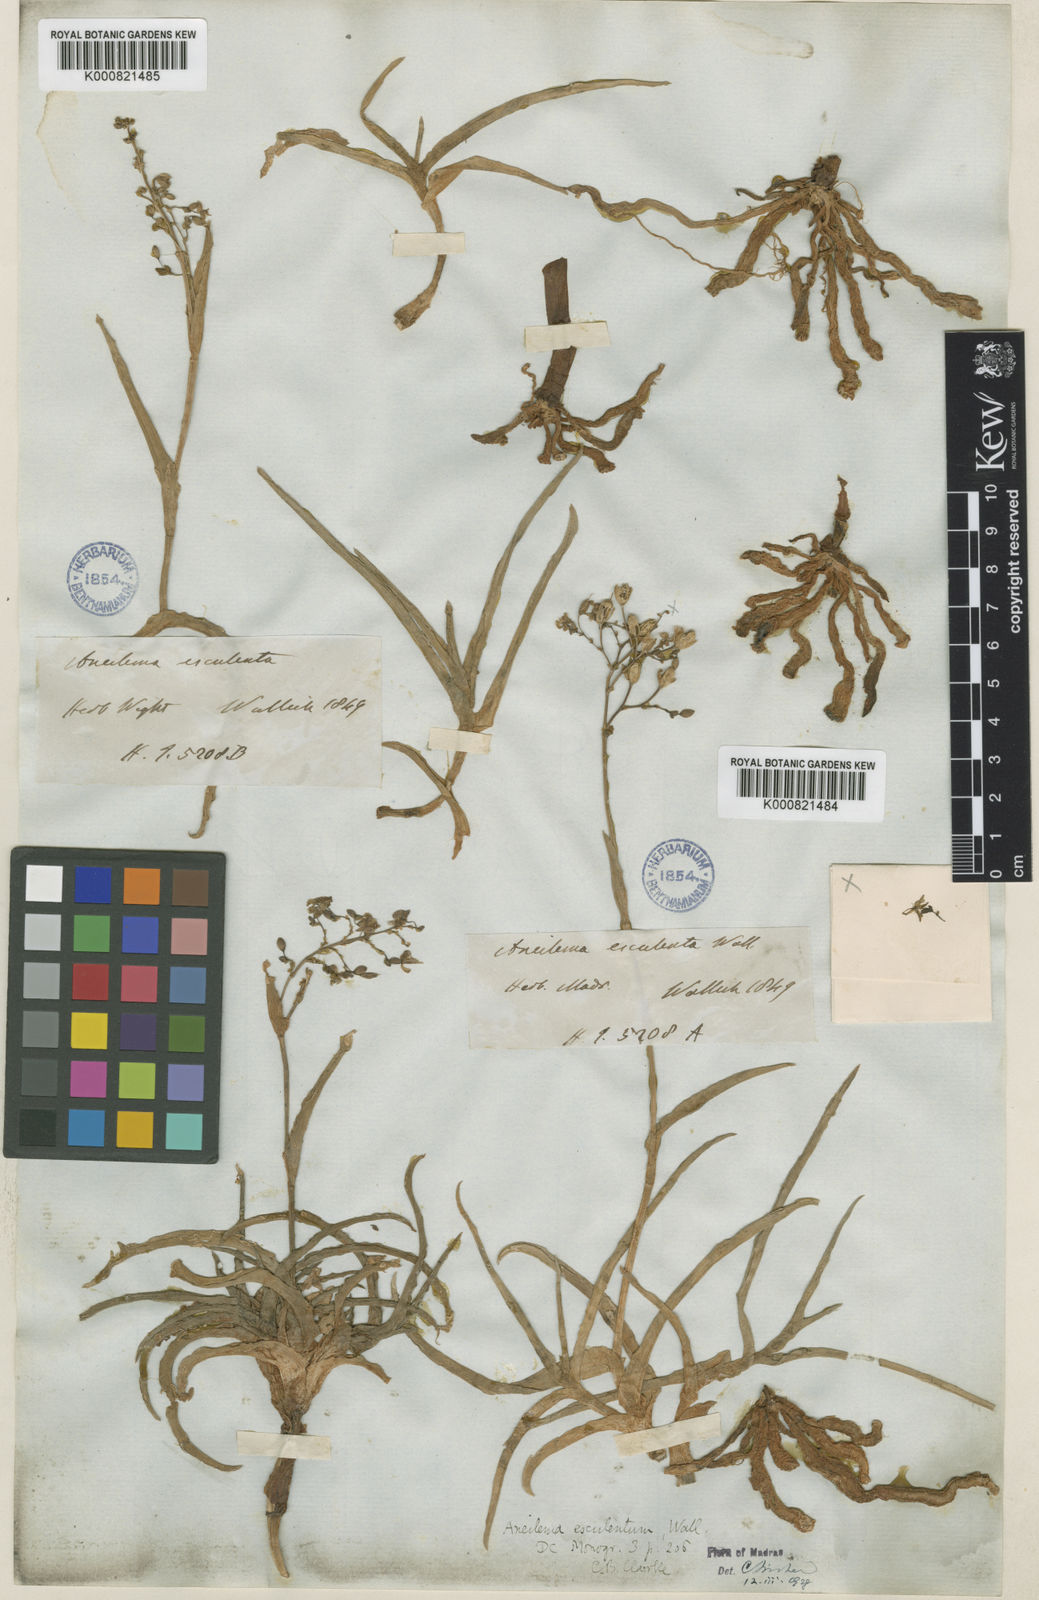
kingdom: Plantae
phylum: Tracheophyta
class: Liliopsida
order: Commelinales
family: Commelinaceae
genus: Murdannia
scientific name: Murdannia esculenta
